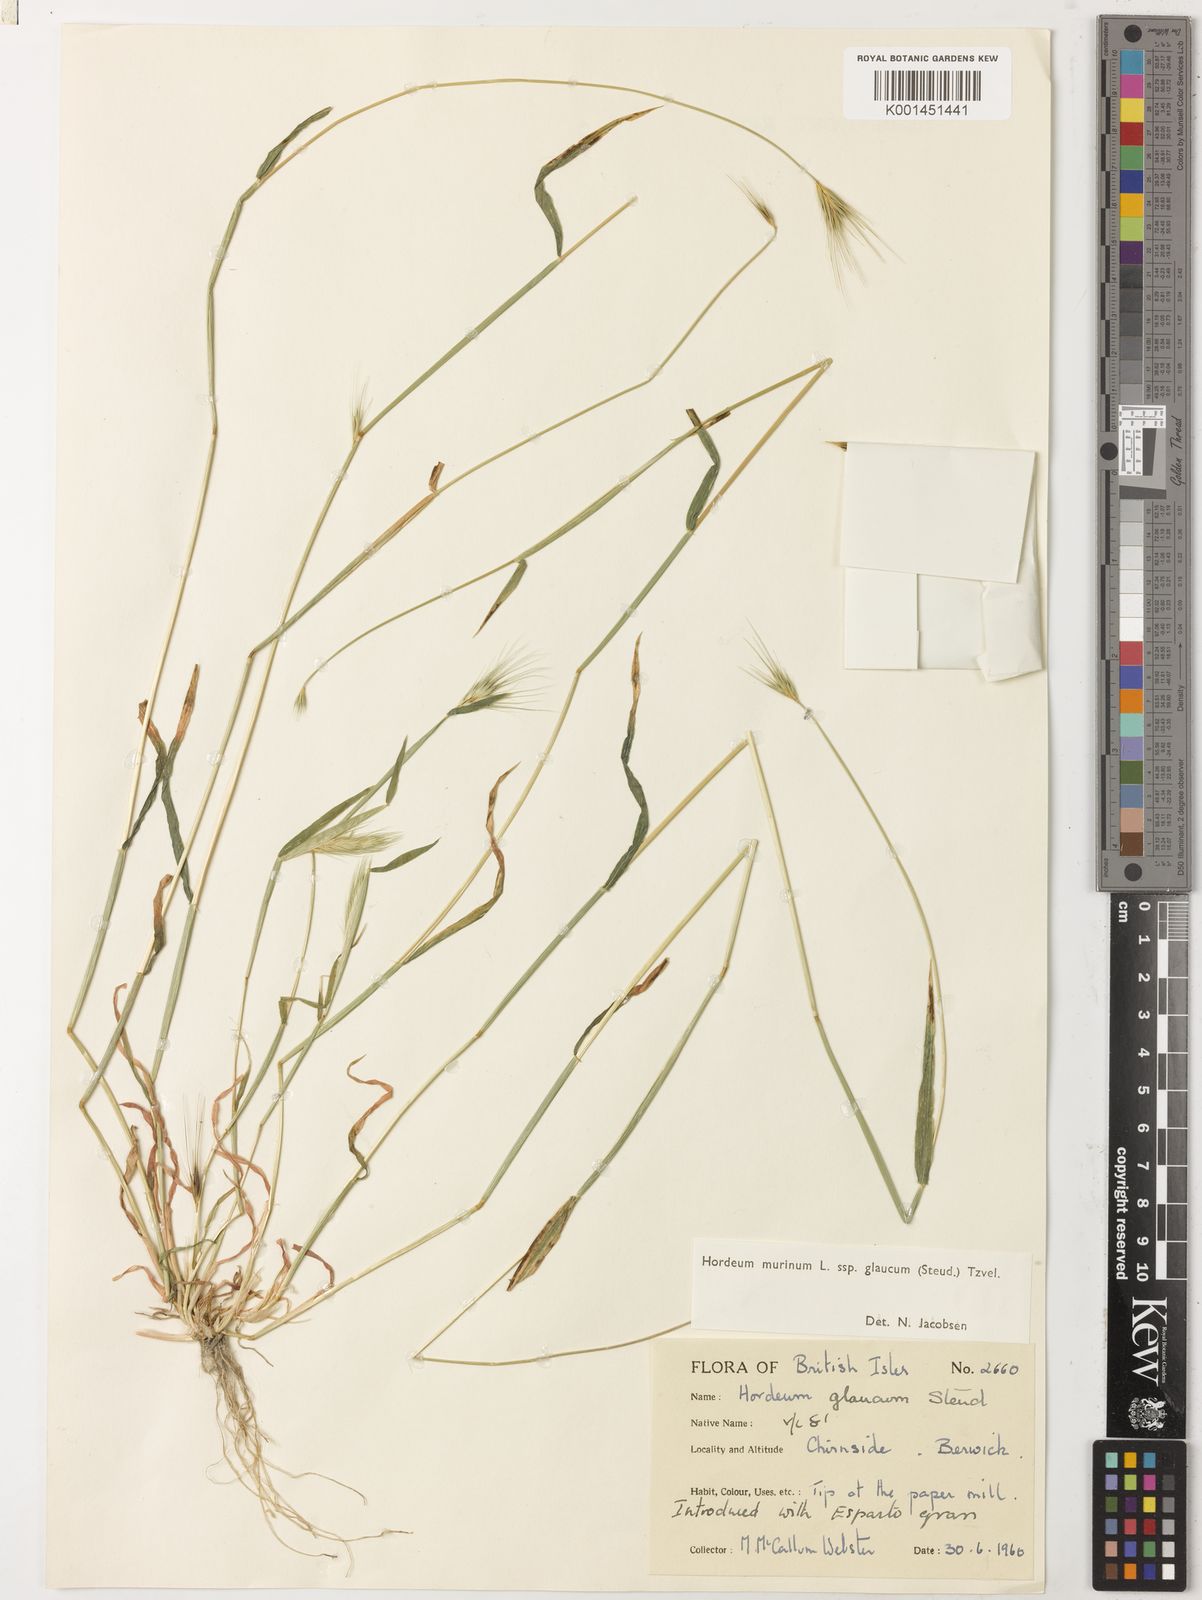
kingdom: Plantae
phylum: Tracheophyta
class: Liliopsida
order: Poales
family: Poaceae
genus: Hordeum
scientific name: Hordeum murinum
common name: Wall barley
